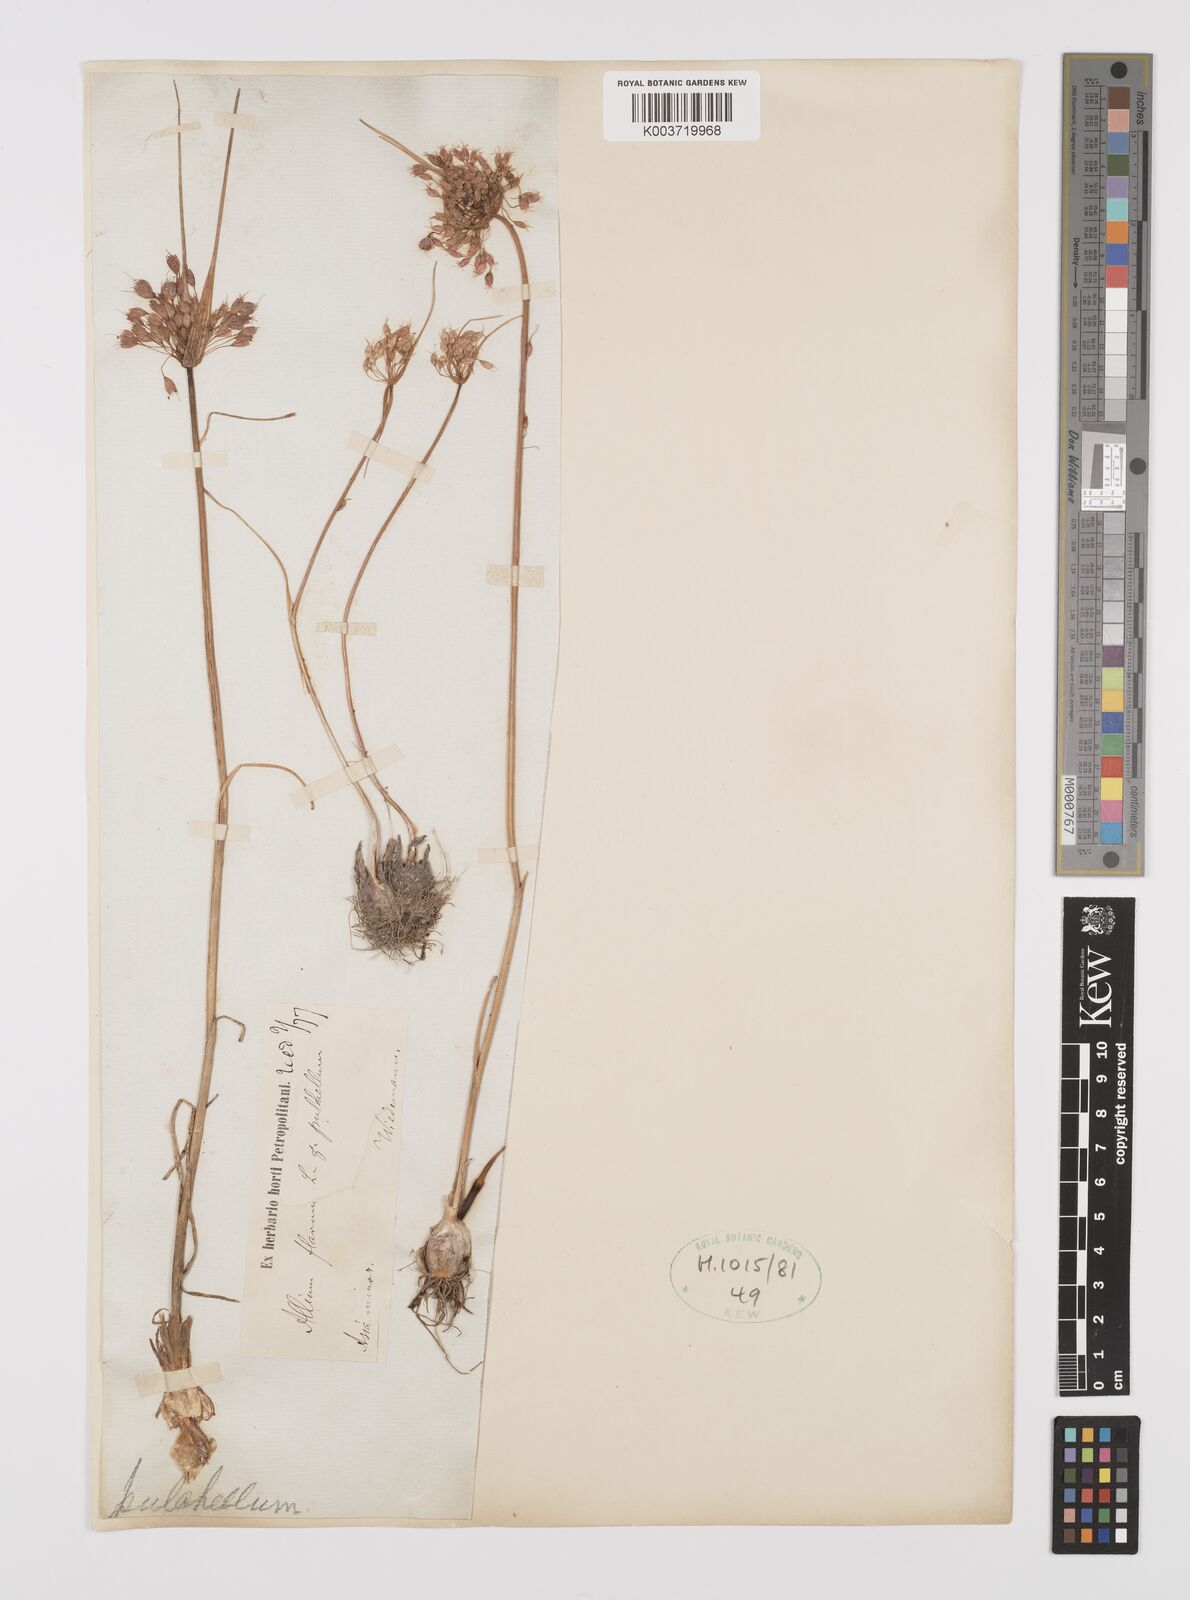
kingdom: Plantae
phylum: Tracheophyta
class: Liliopsida
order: Asparagales
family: Amaryllidaceae
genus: Allium
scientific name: Allium coloratum
